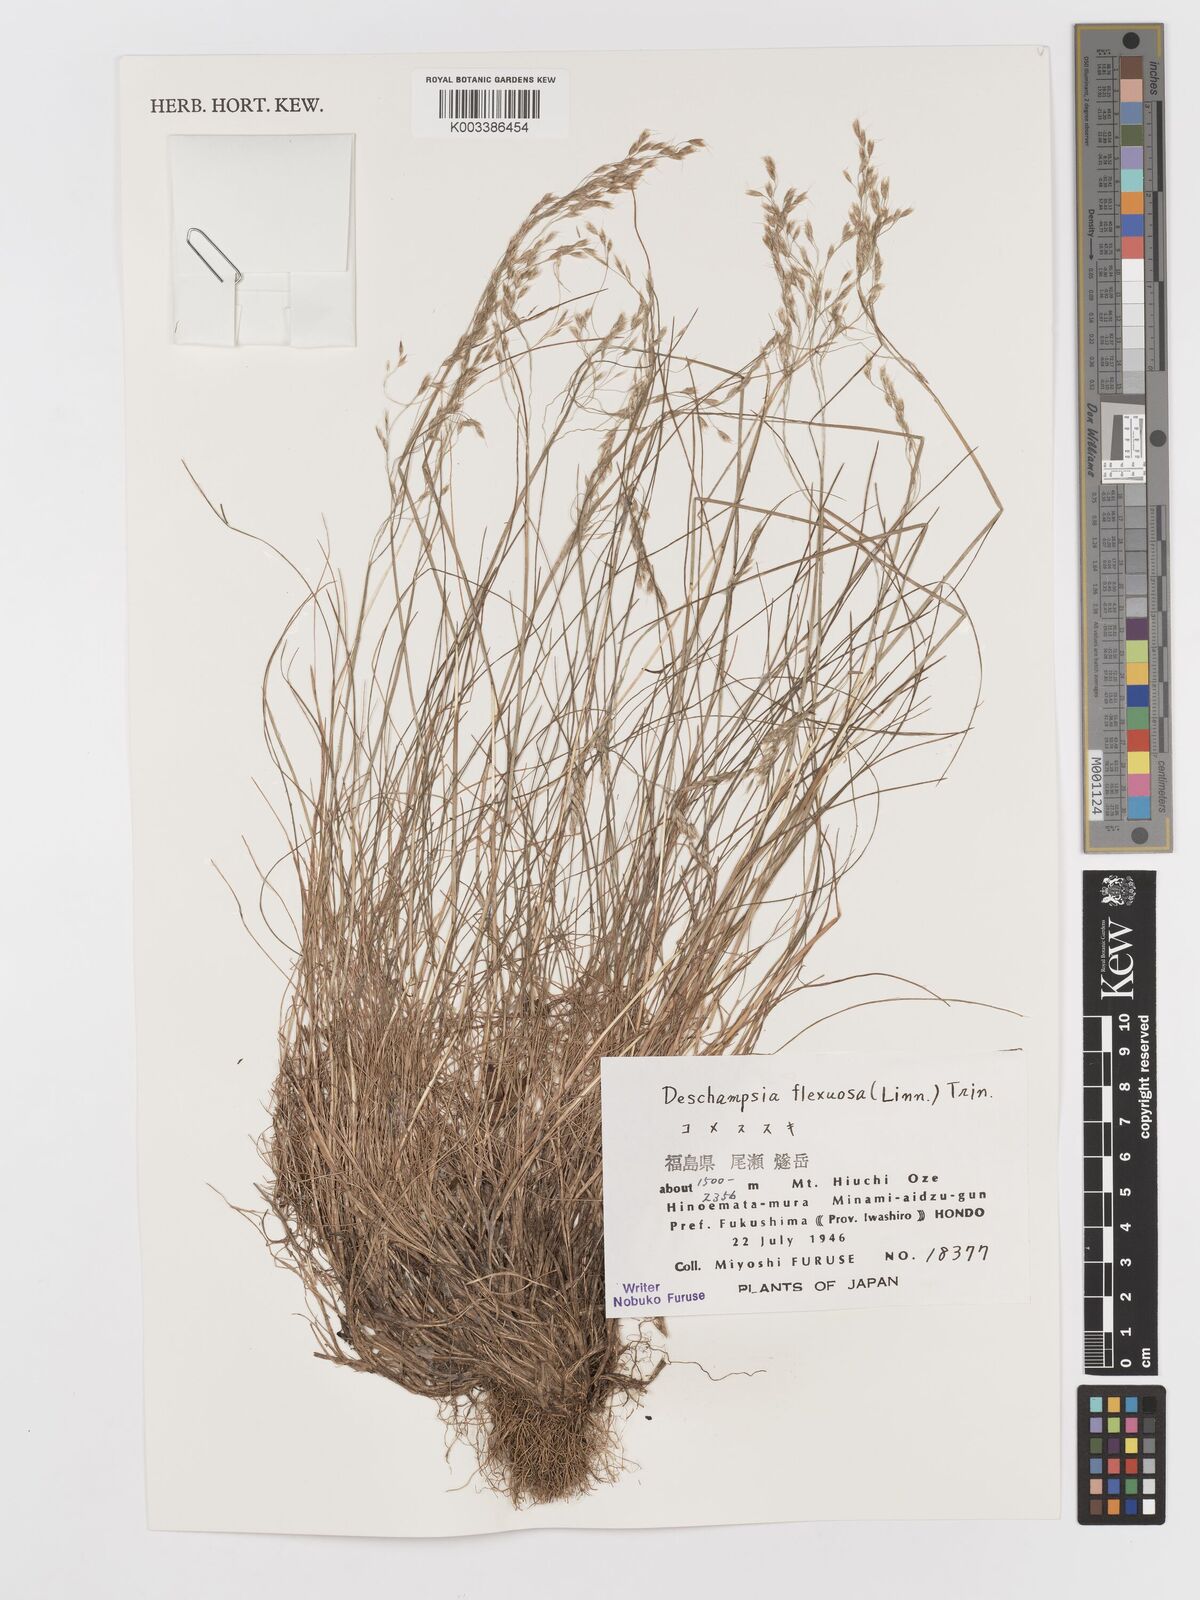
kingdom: Plantae
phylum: Tracheophyta
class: Liliopsida
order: Poales
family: Poaceae
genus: Avenella
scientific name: Avenella flexuosa
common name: Wavy hairgrass
